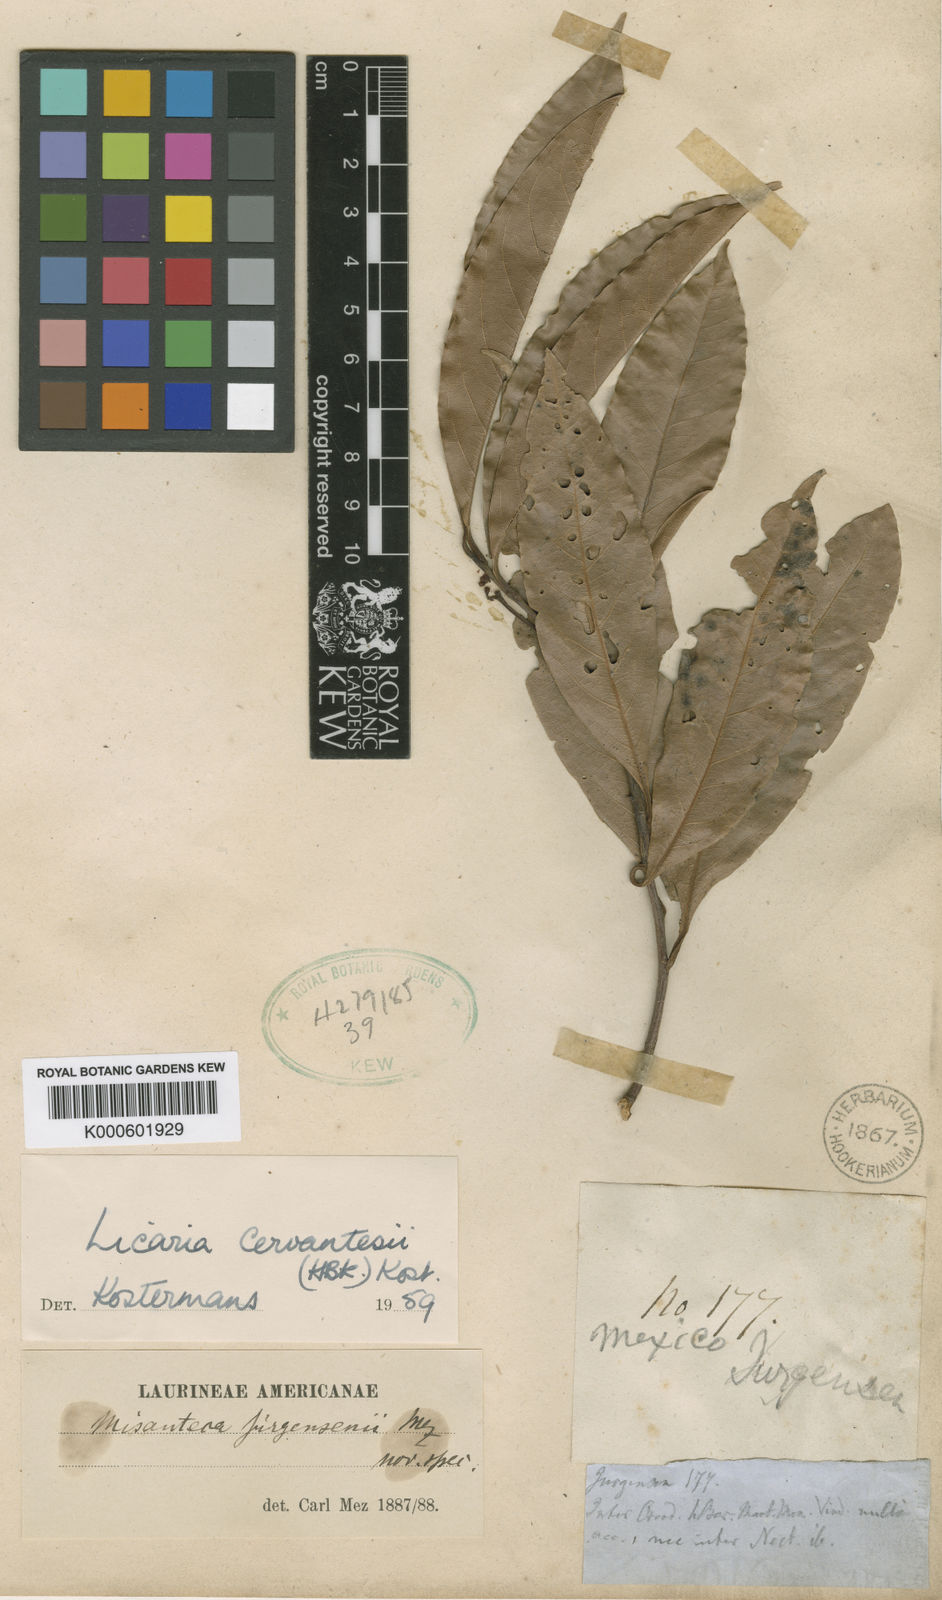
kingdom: Plantae
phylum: Tracheophyta
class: Magnoliopsida
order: Laurales
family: Lauraceae
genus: Licaria
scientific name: Licaria triandra
